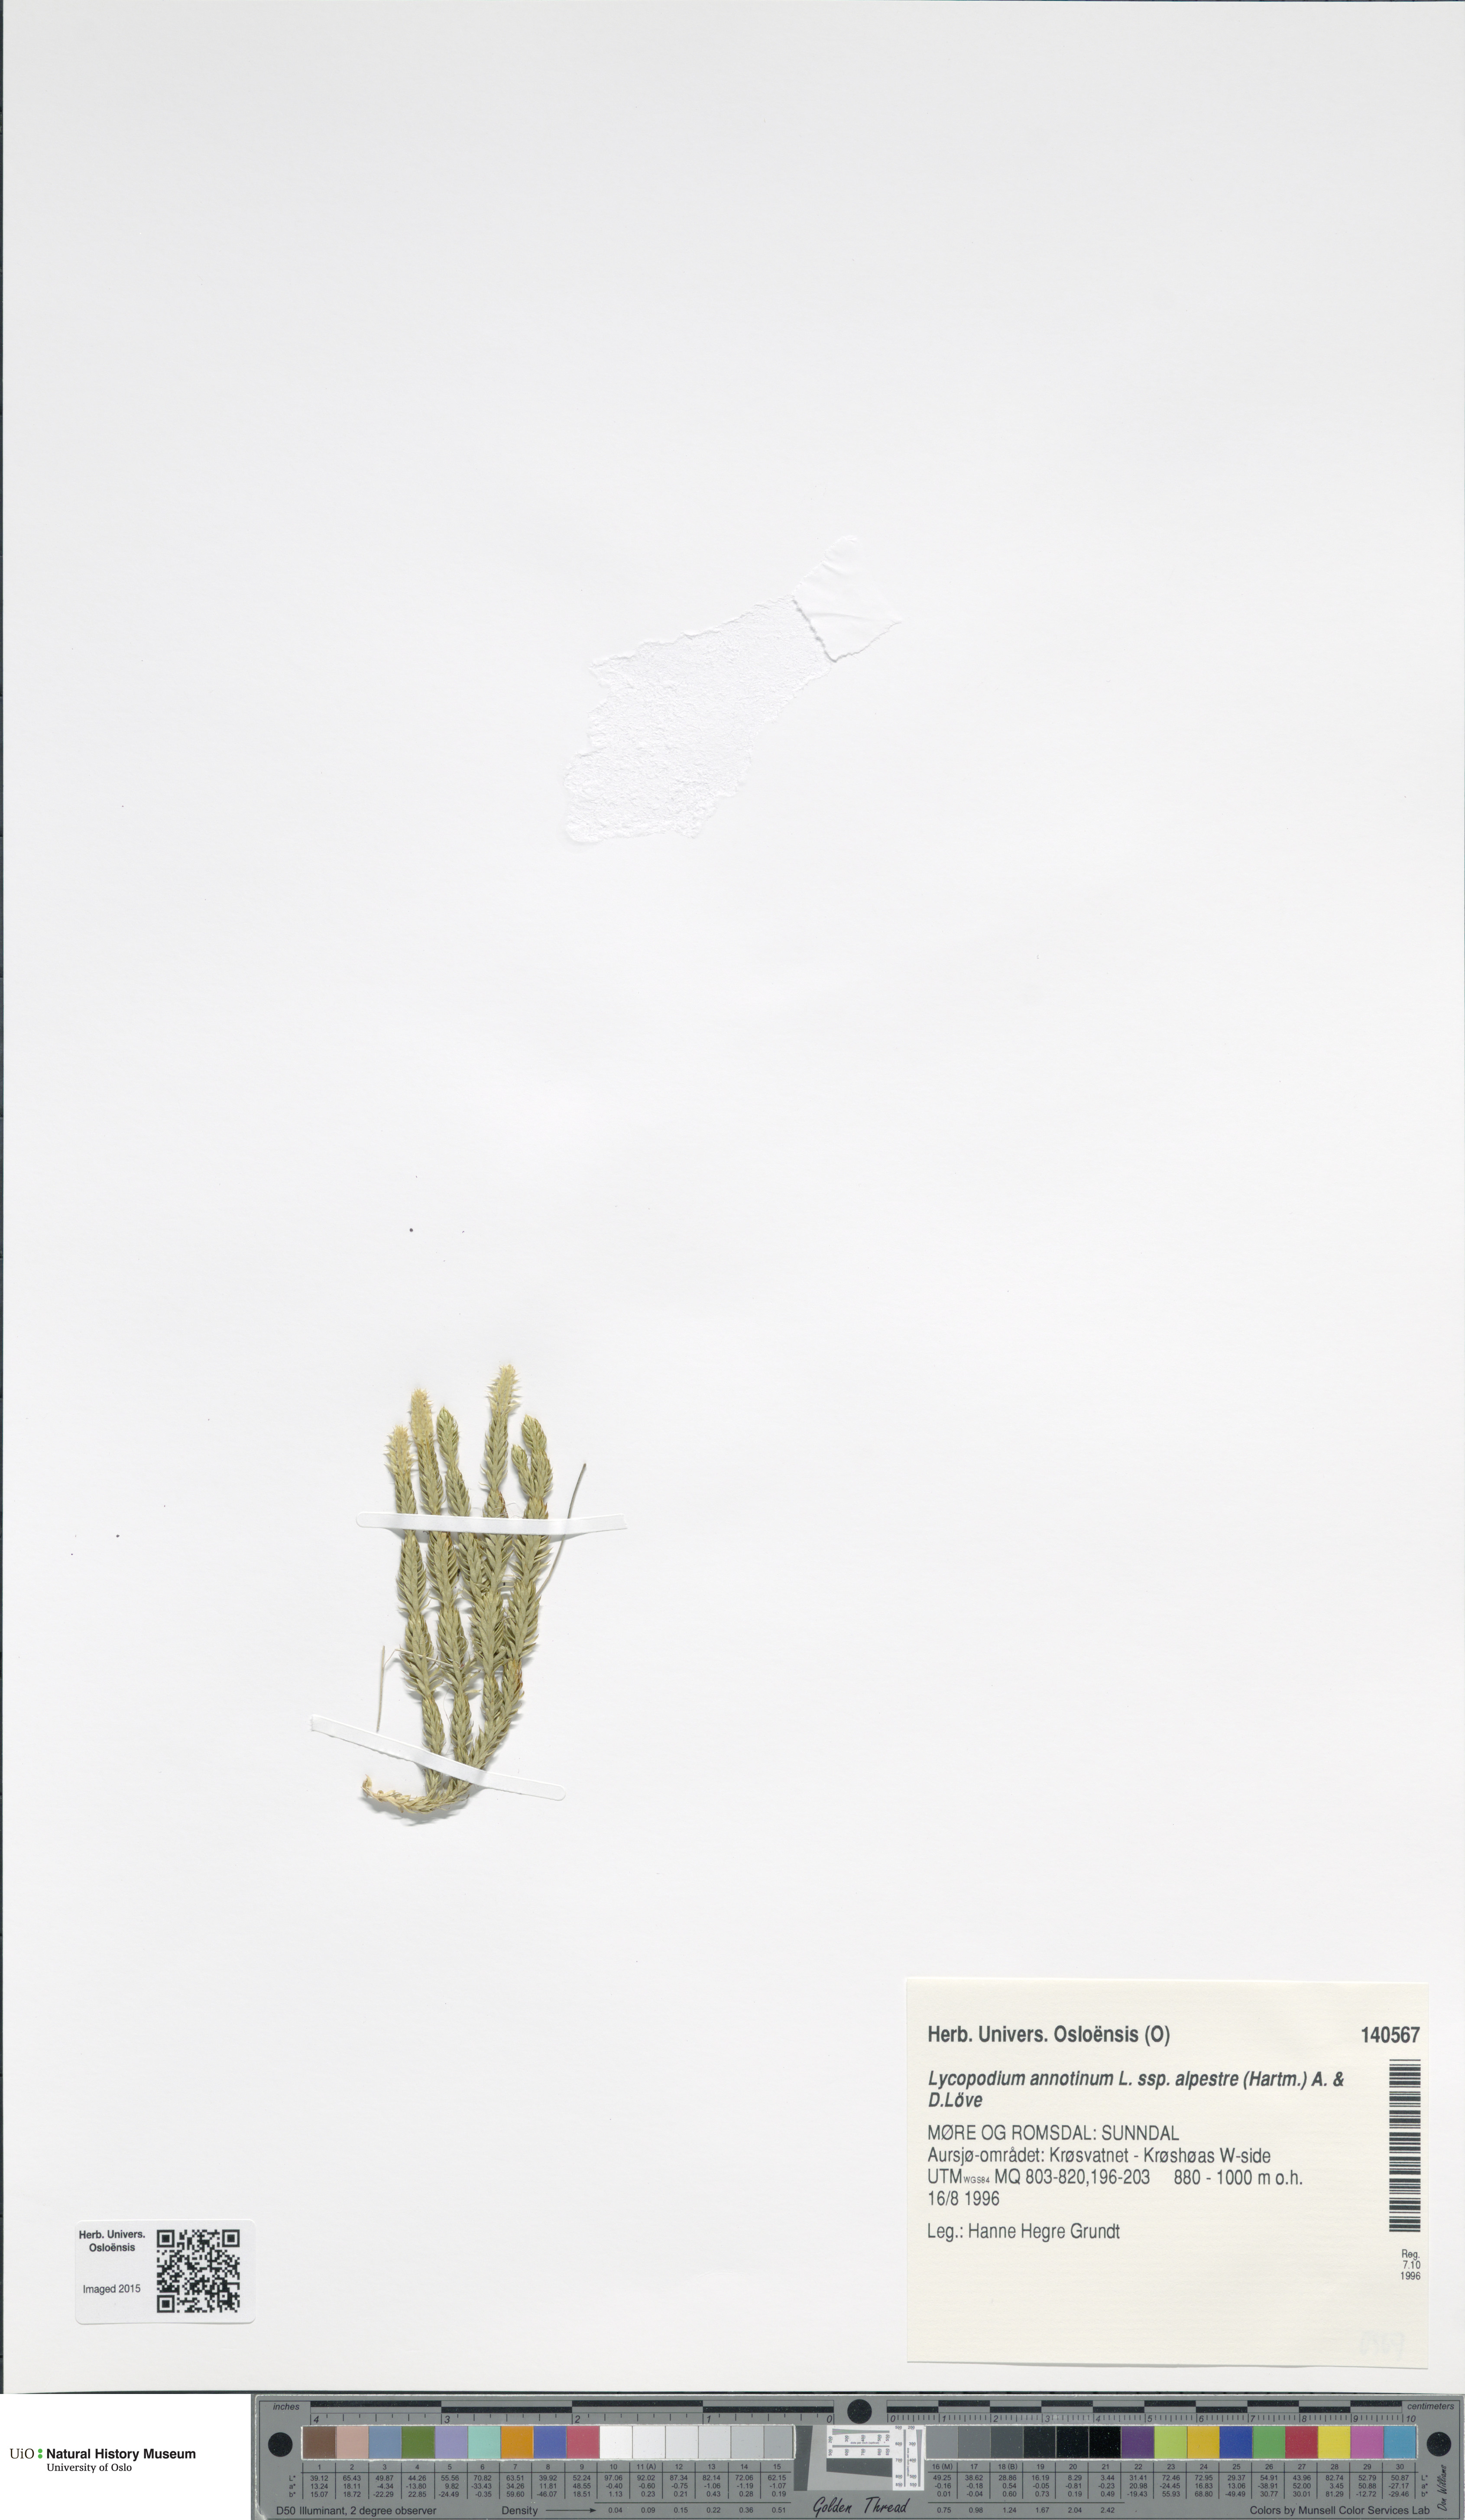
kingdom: Plantae
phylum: Tracheophyta
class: Lycopodiopsida
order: Lycopodiales
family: Lycopodiaceae
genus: Spinulum
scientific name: Spinulum annotinum
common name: Interrupted club-moss
